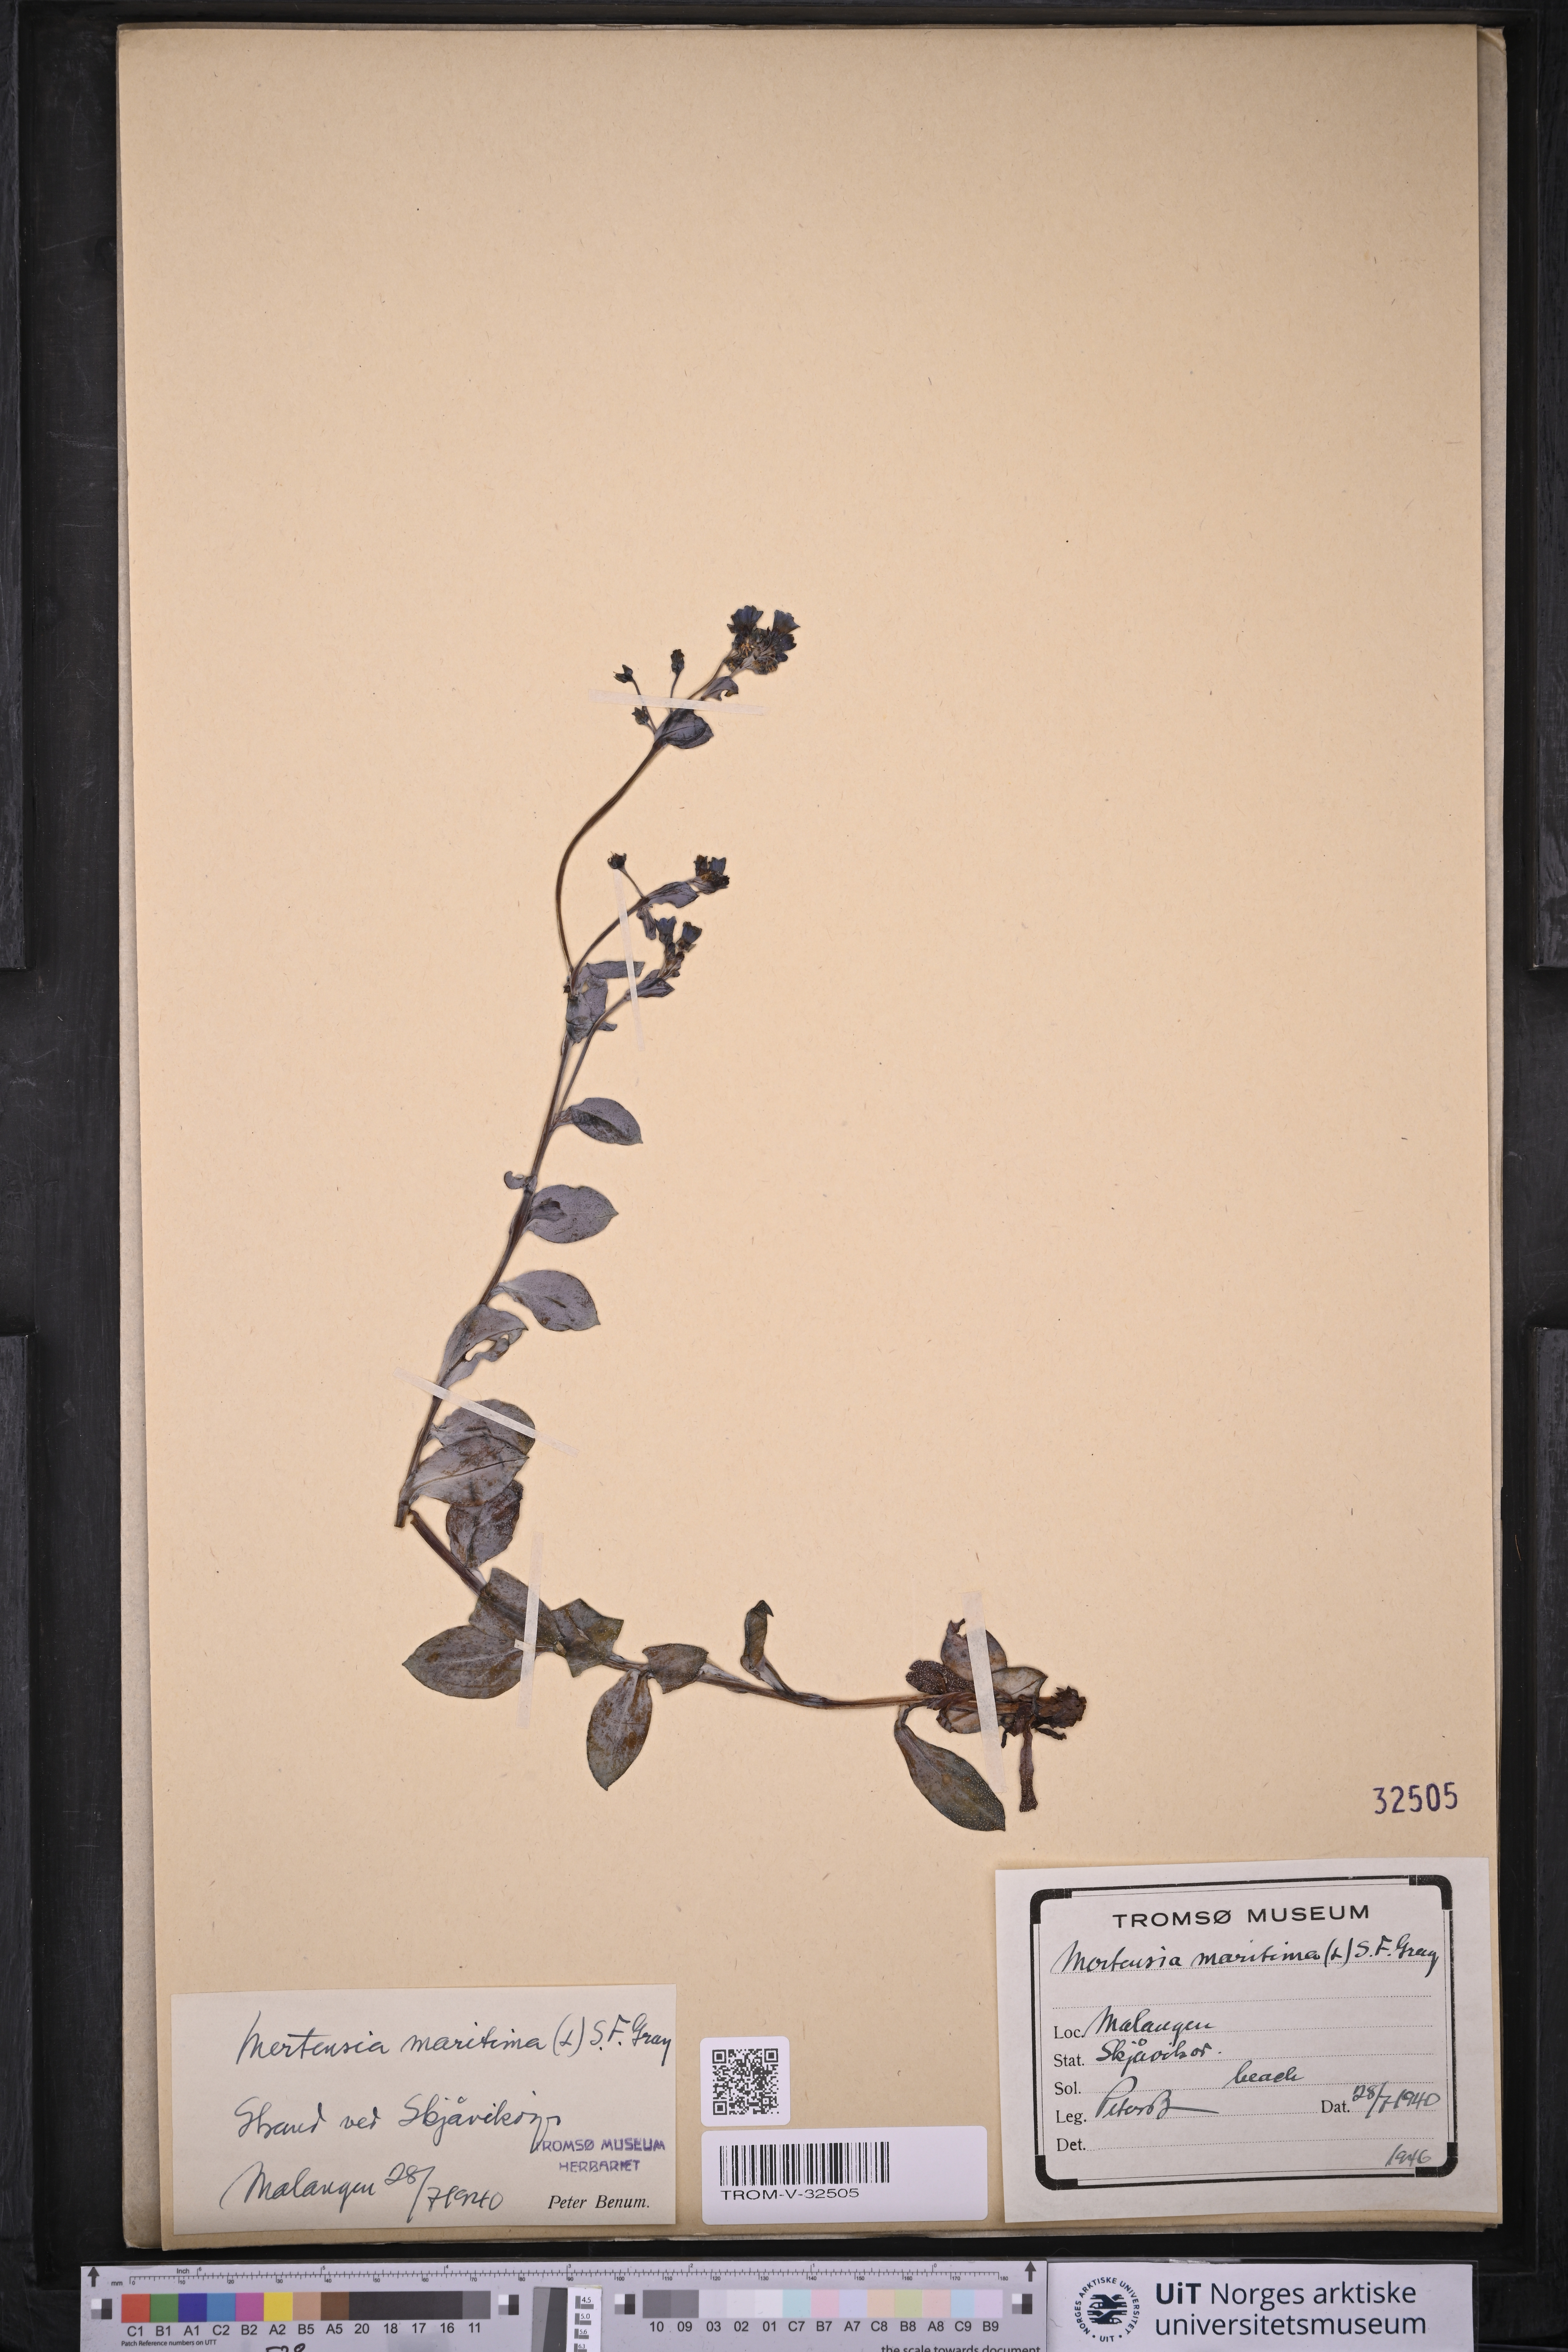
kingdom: Plantae
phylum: Tracheophyta
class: Magnoliopsida
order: Boraginales
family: Boraginaceae
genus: Mertensia
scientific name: Mertensia maritima
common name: Oysterplant
